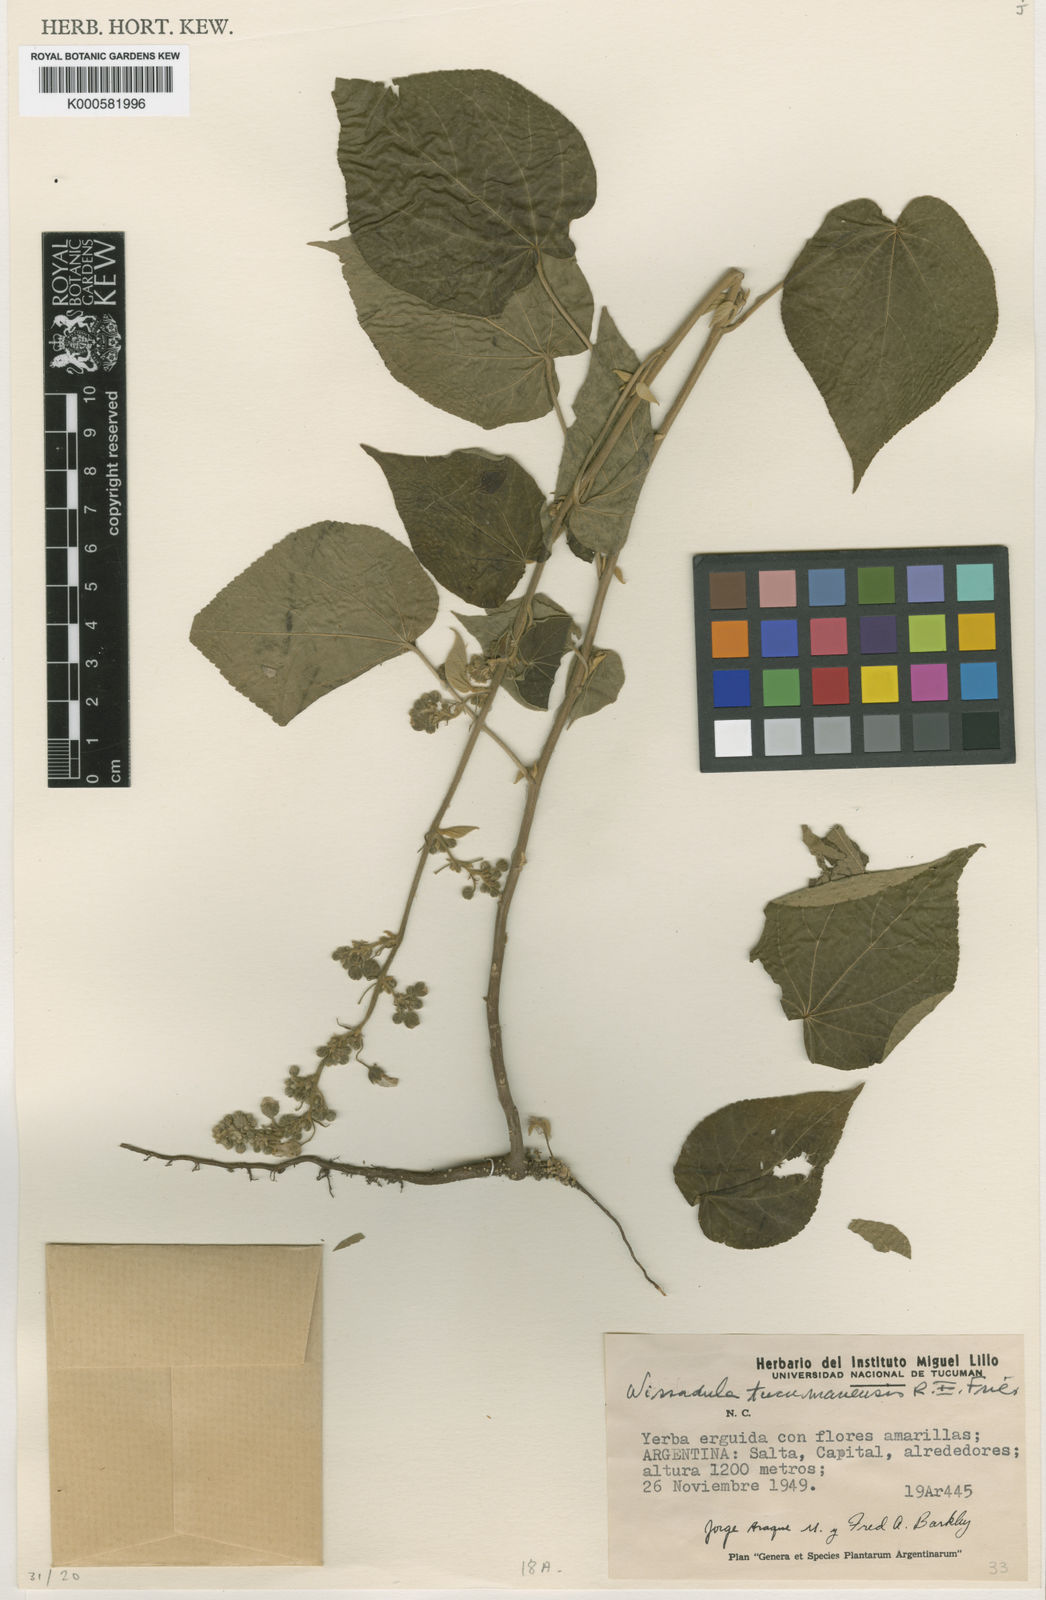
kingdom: Plantae
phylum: Tracheophyta
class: Magnoliopsida
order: Malvales
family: Malvaceae
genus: Wissadula
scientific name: Wissadula tucumanensis
